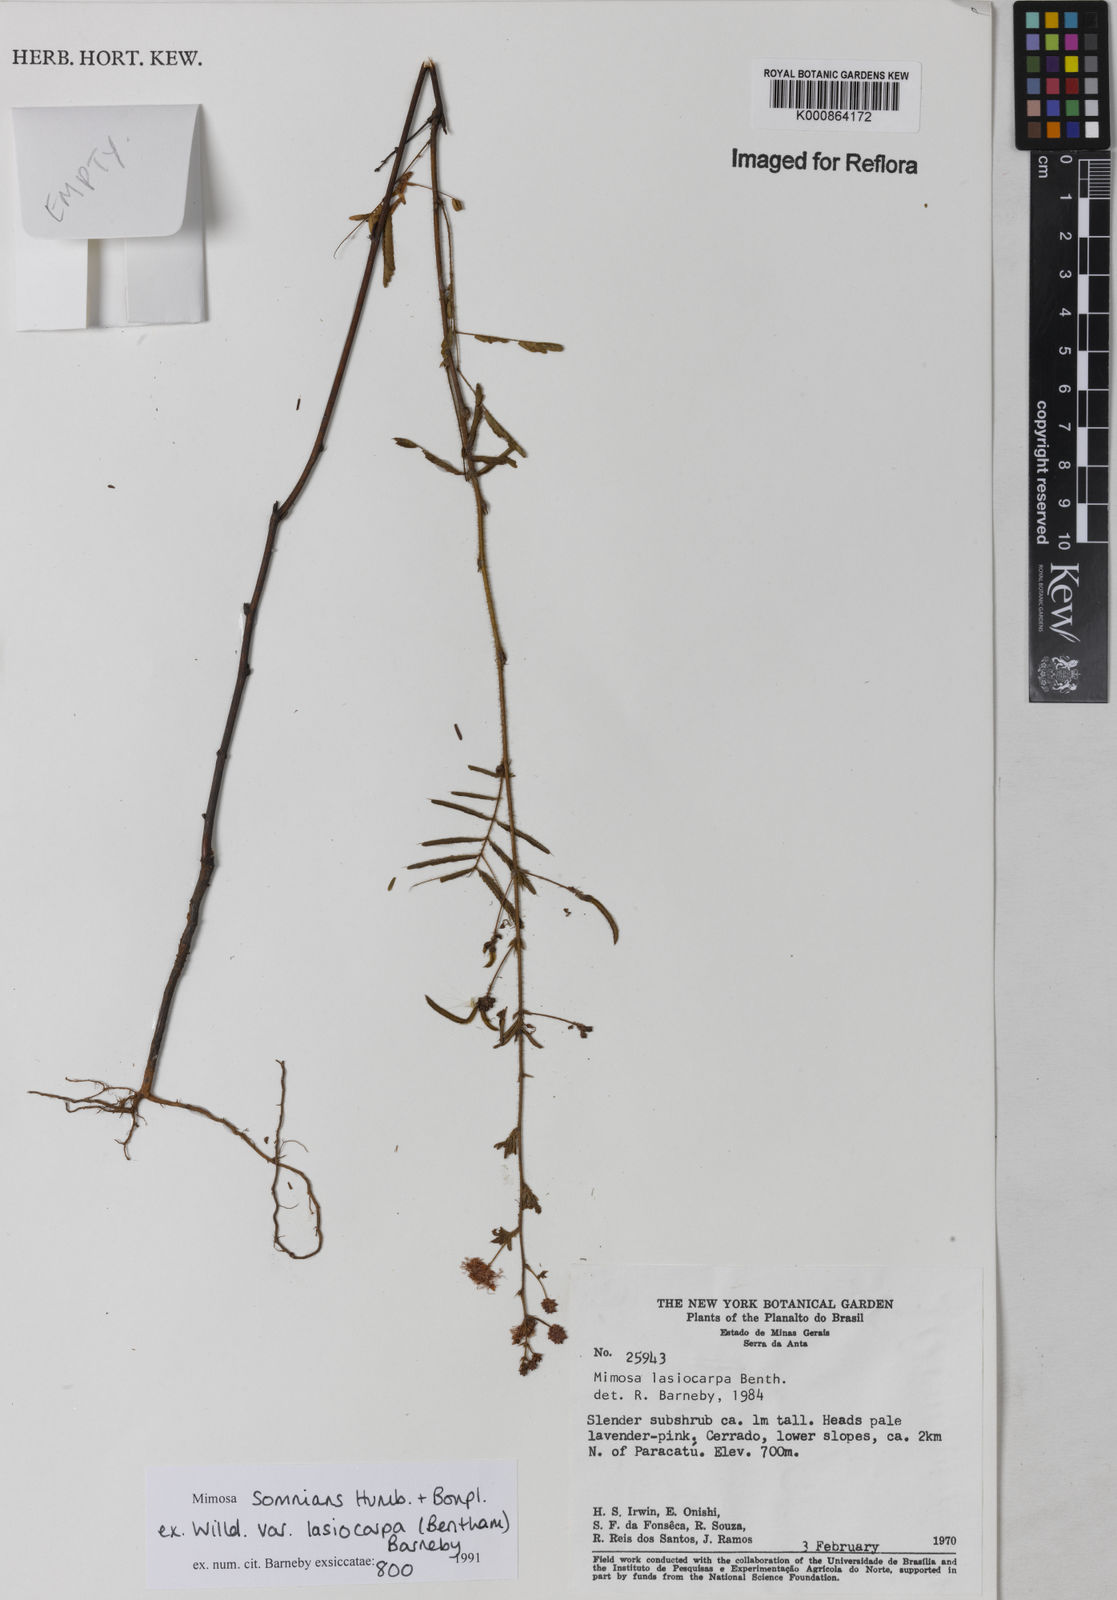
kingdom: Plantae
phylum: Tracheophyta
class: Magnoliopsida
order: Fabales
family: Fabaceae
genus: Mimosa
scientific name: Mimosa somnians
